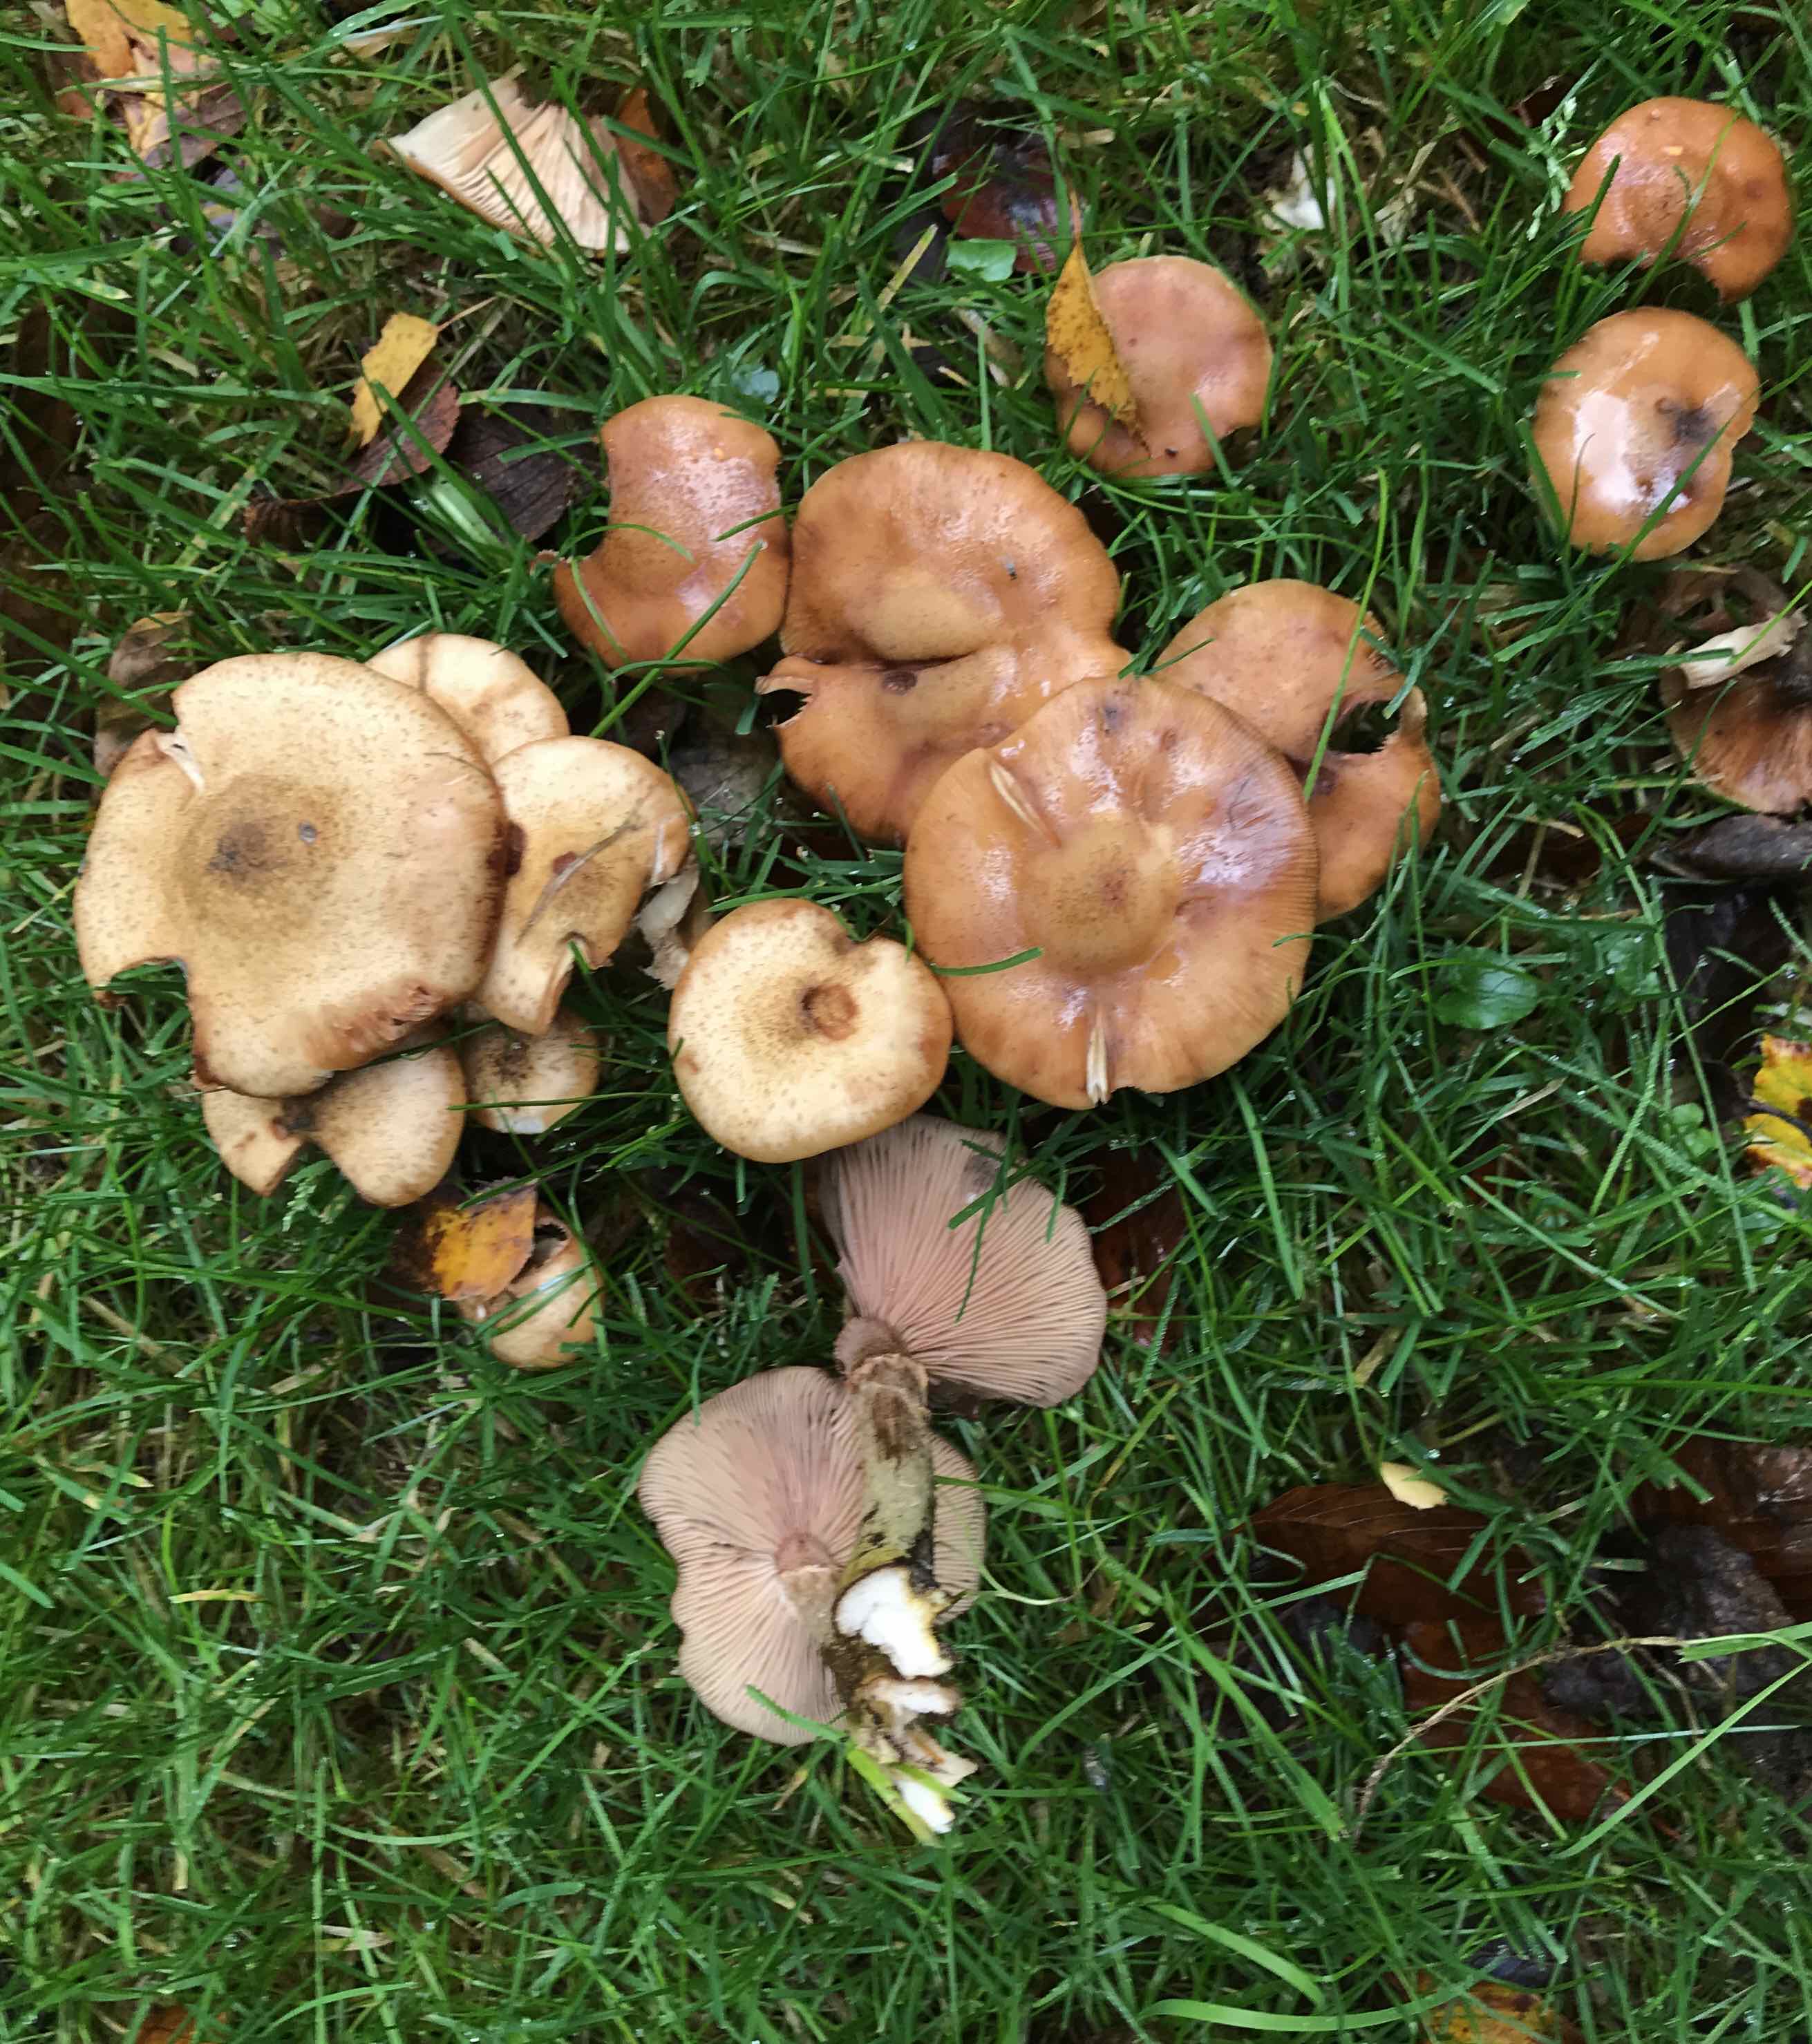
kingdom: Fungi
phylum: Basidiomycota
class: Agaricomycetes
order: Agaricales
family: Physalacriaceae
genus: Armillaria
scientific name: Armillaria lutea
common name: køllestokket honningsvamp
